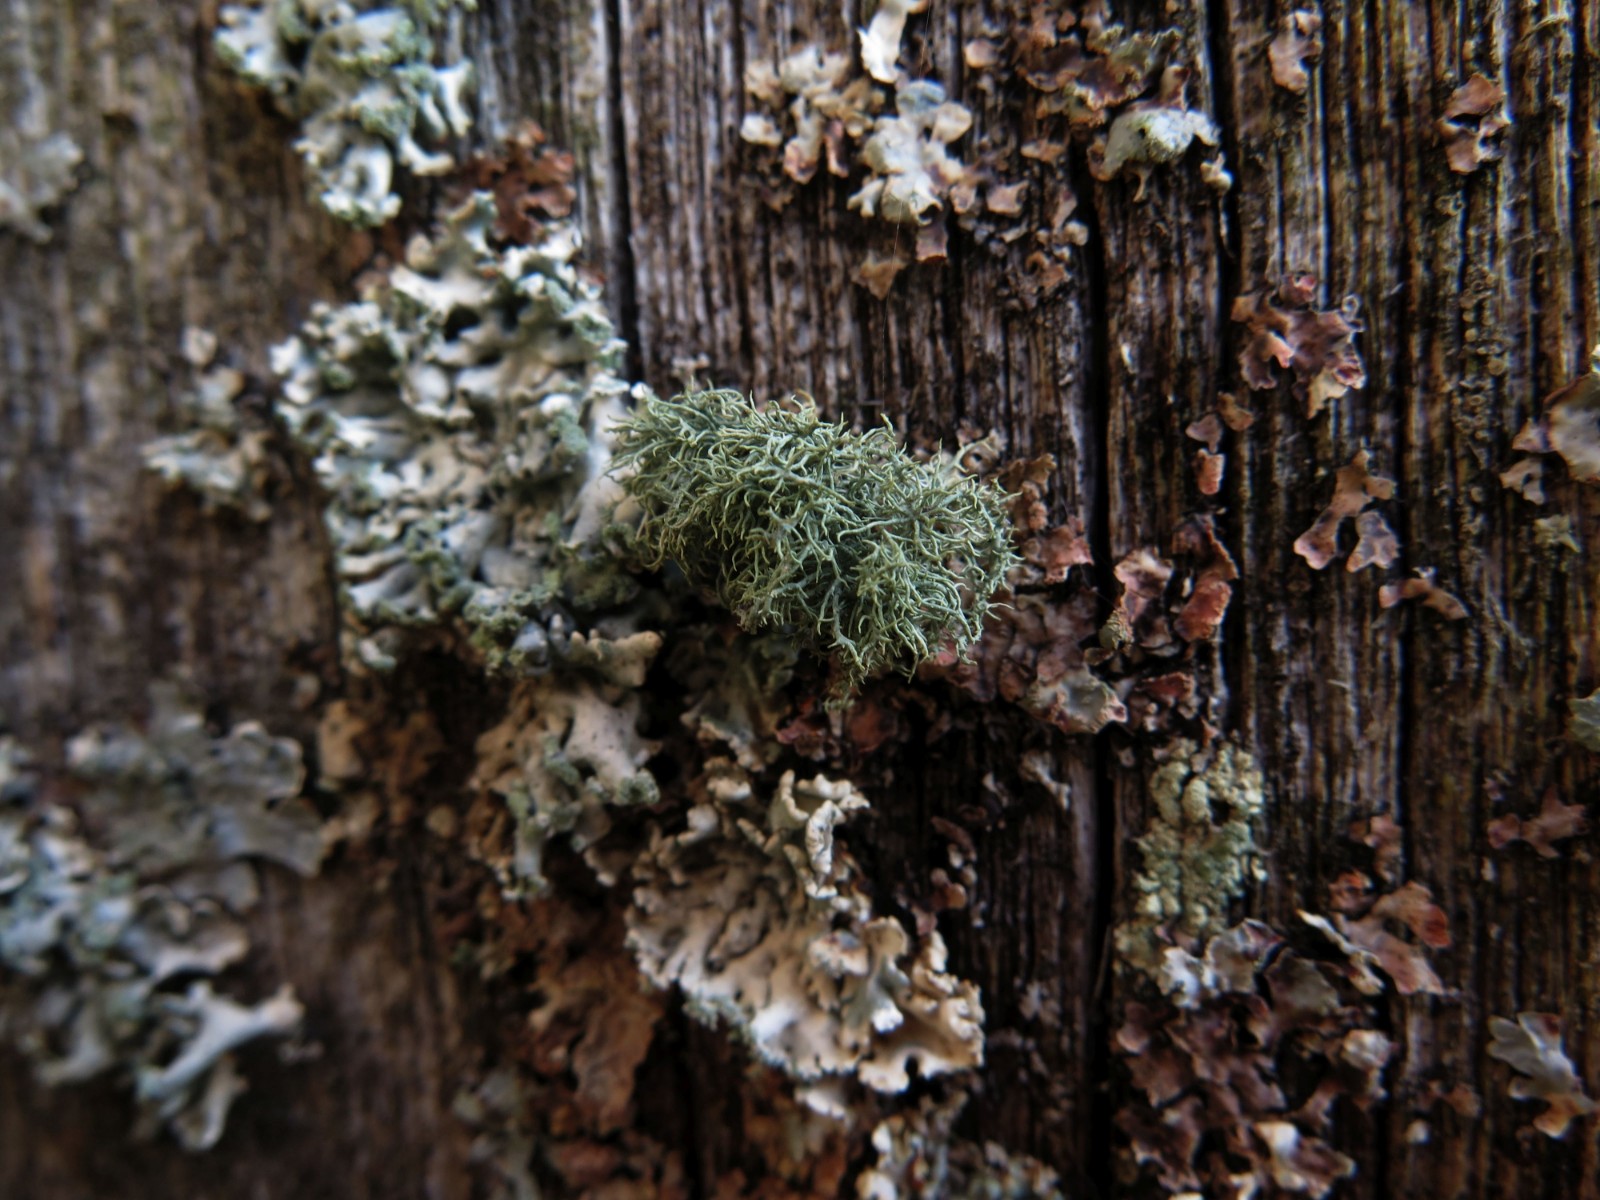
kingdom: Fungi
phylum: Ascomycota
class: Lecanoromycetes
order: Lecanorales
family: Parmeliaceae
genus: Usnea
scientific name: Usnea subfloridana
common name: busket skæglav
